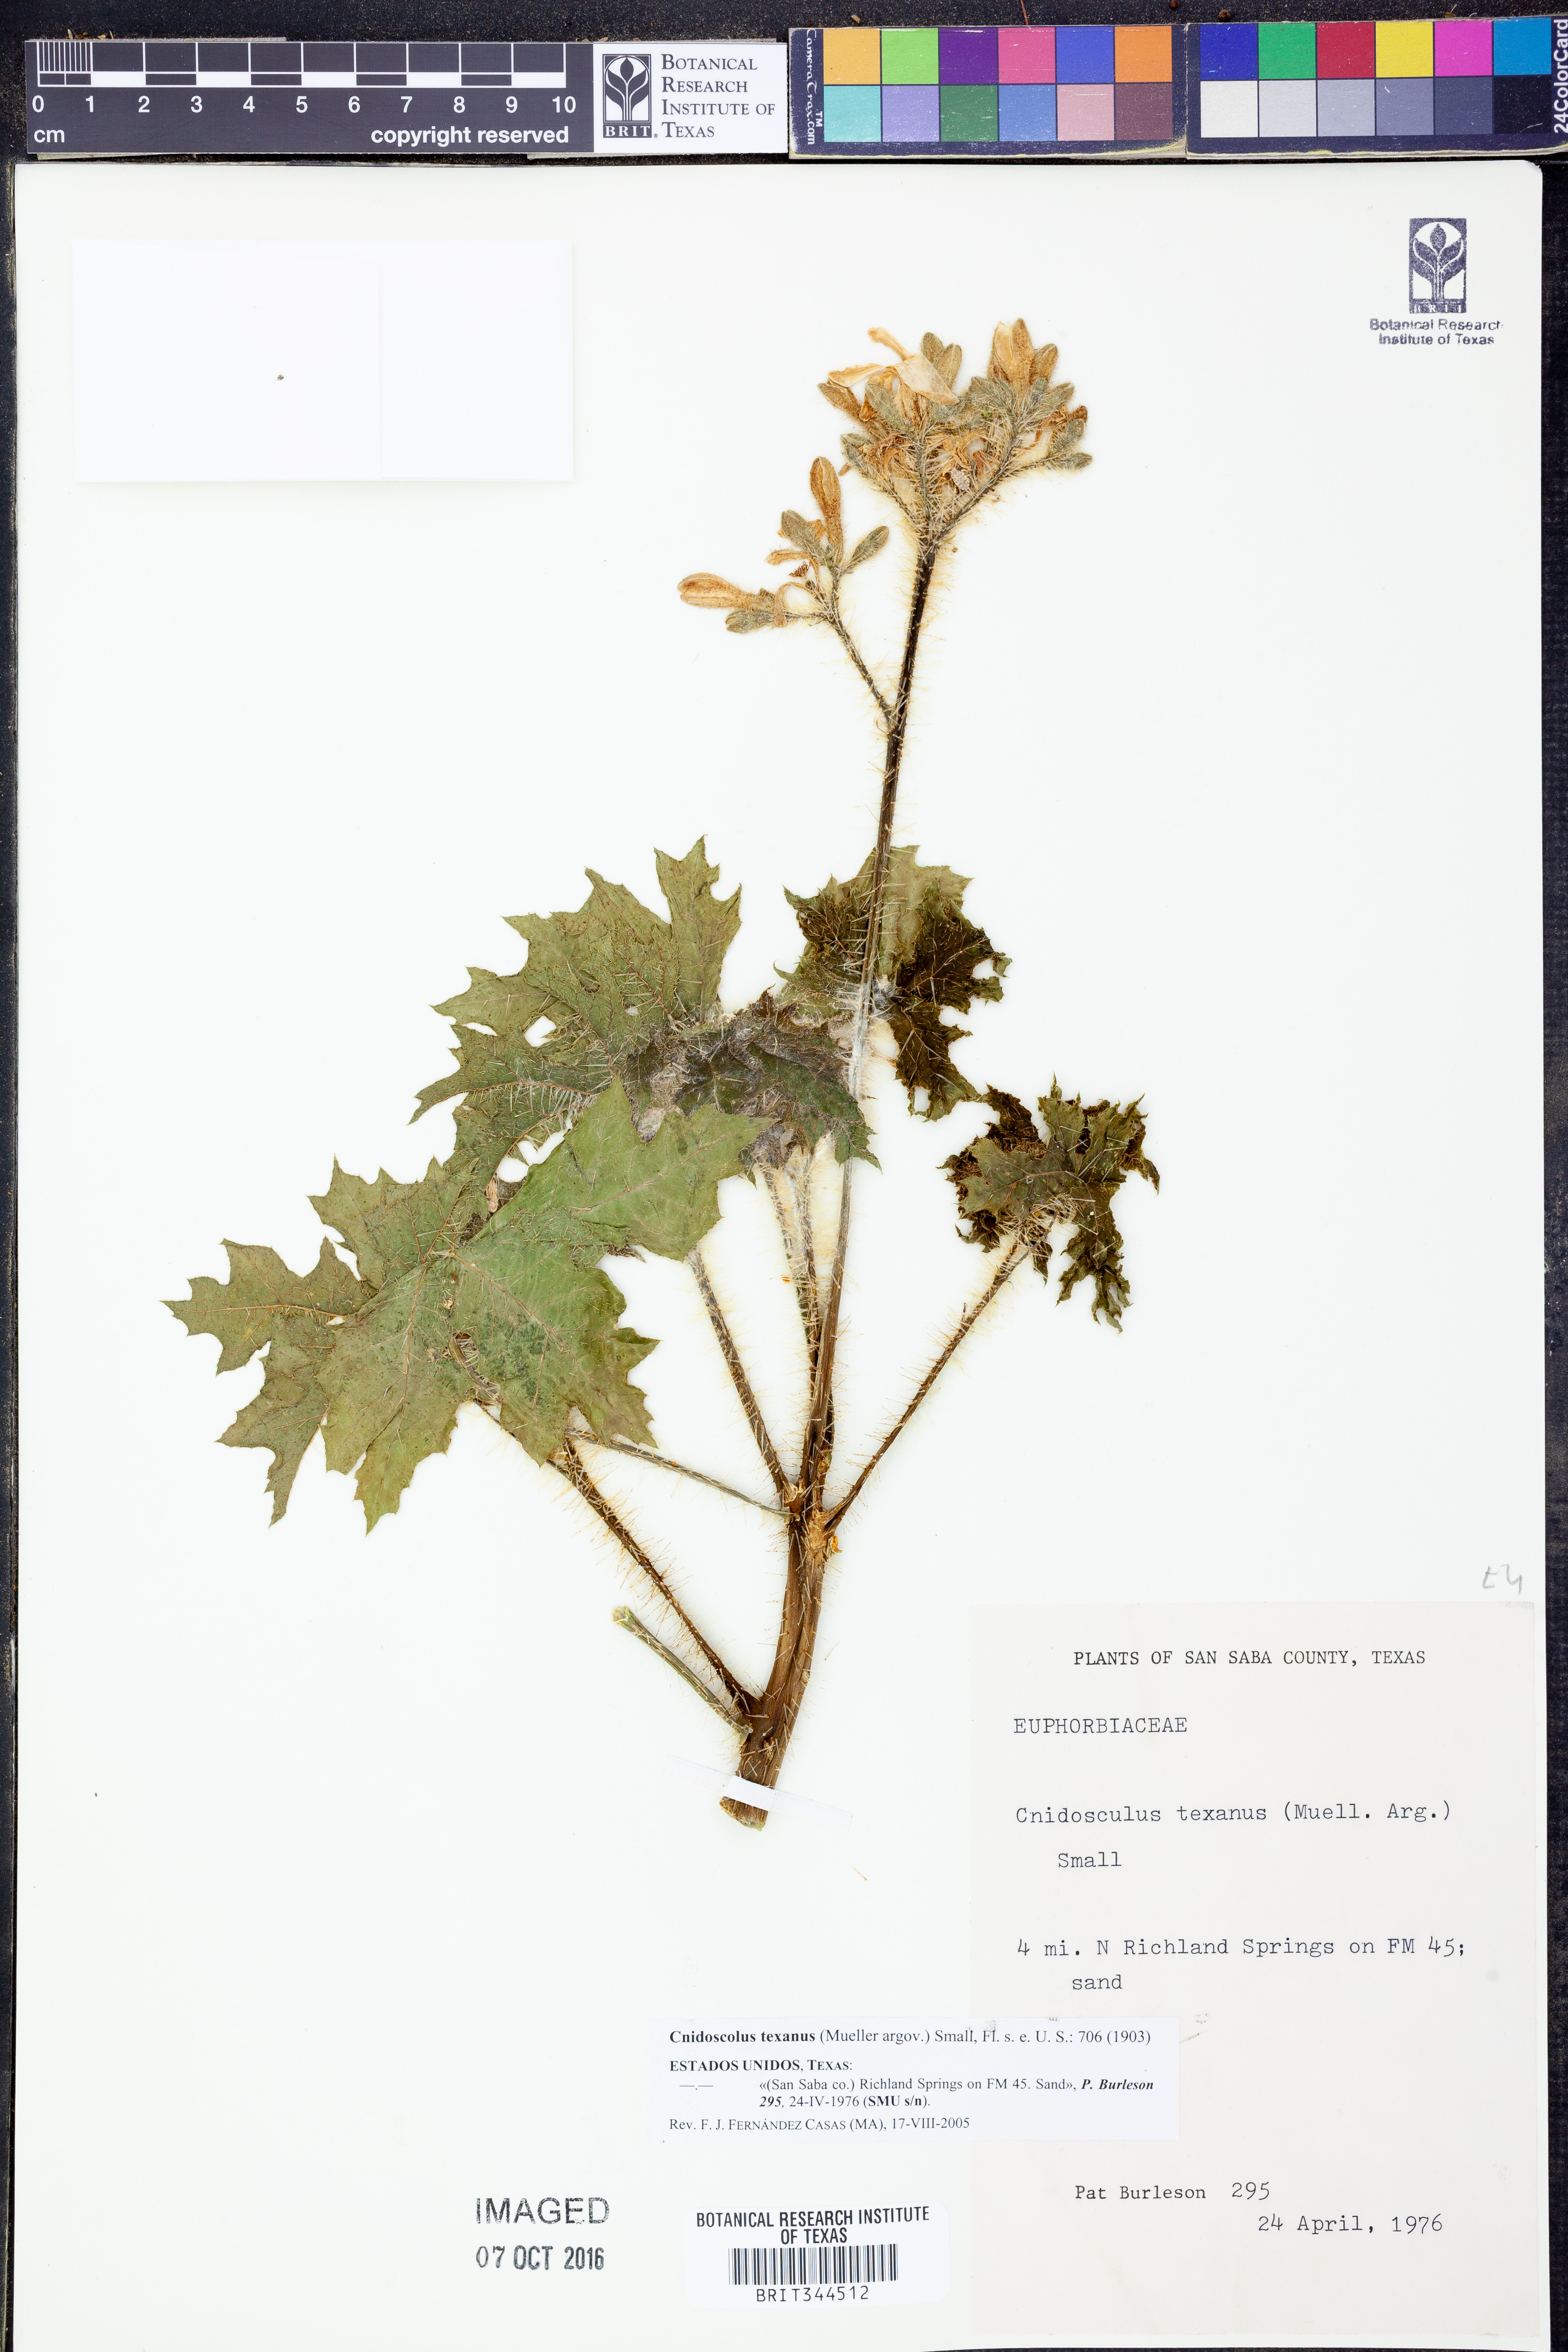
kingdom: Plantae
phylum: Tracheophyta
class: Magnoliopsida
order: Malpighiales
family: Euphorbiaceae
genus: Cnidoscolus
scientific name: Cnidoscolus texanus
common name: Texas bull-nettle
